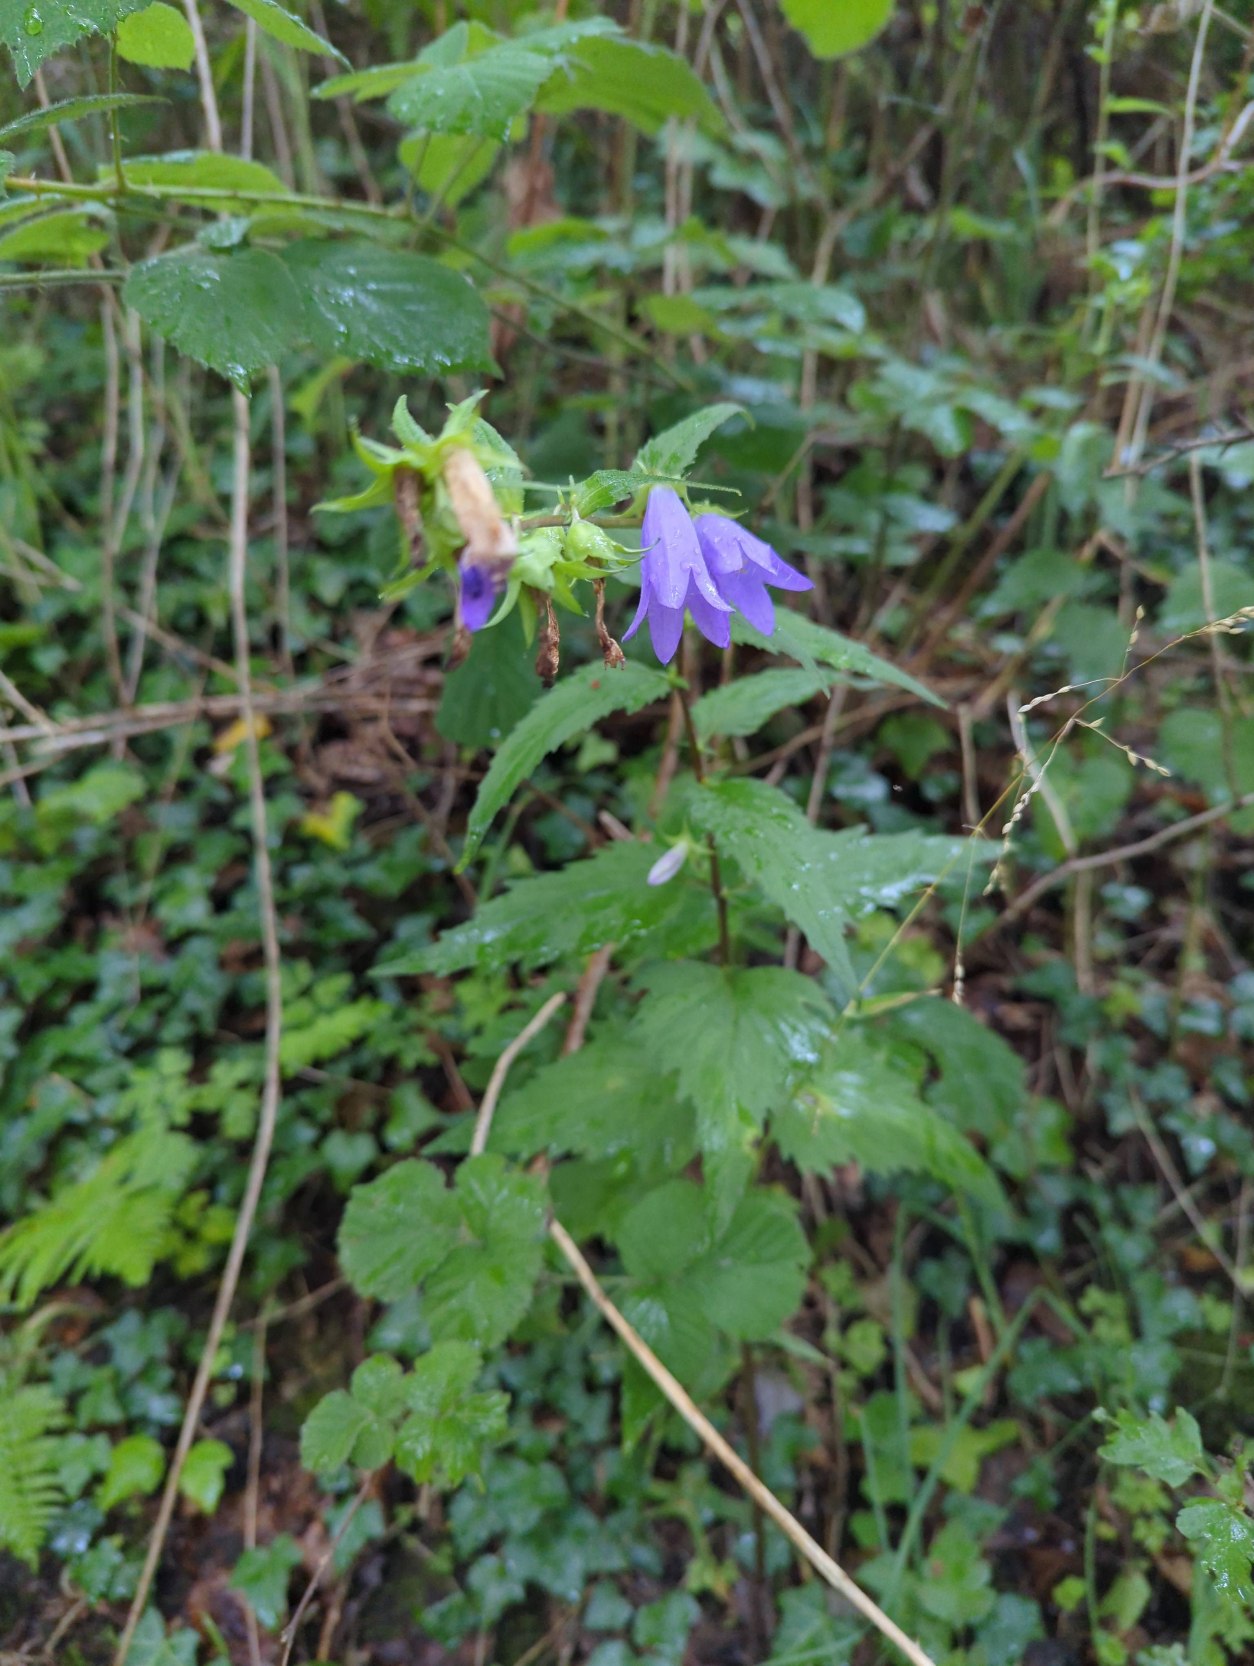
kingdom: Plantae
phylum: Tracheophyta
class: Magnoliopsida
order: Asterales
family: Campanulaceae
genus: Campanula
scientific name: Campanula trachelium
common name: Nælde-klokke
